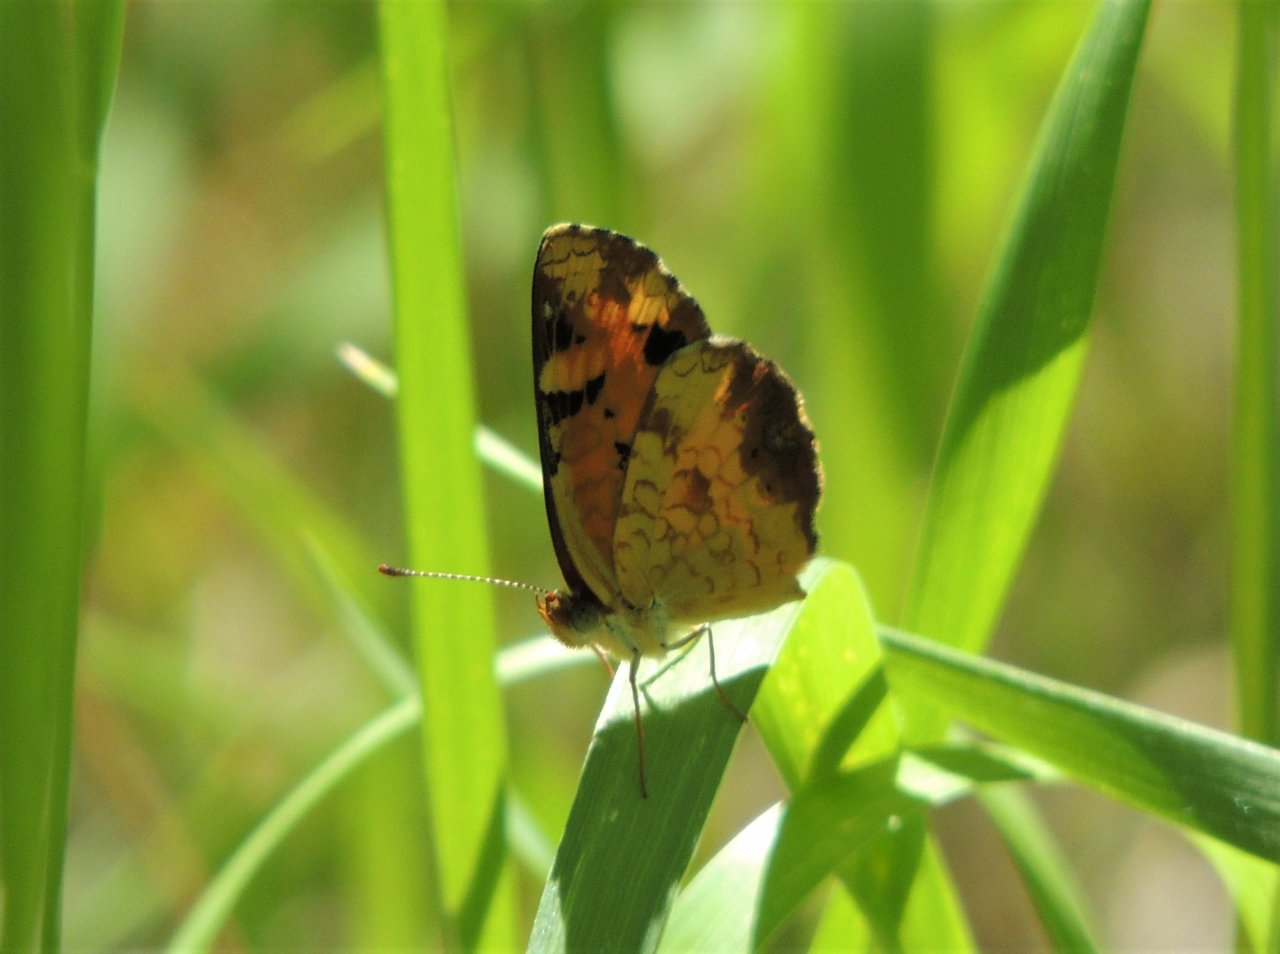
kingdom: Animalia
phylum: Arthropoda
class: Insecta
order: Lepidoptera
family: Nymphalidae
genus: Phyciodes
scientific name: Phyciodes tharos
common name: Northern Crescent
